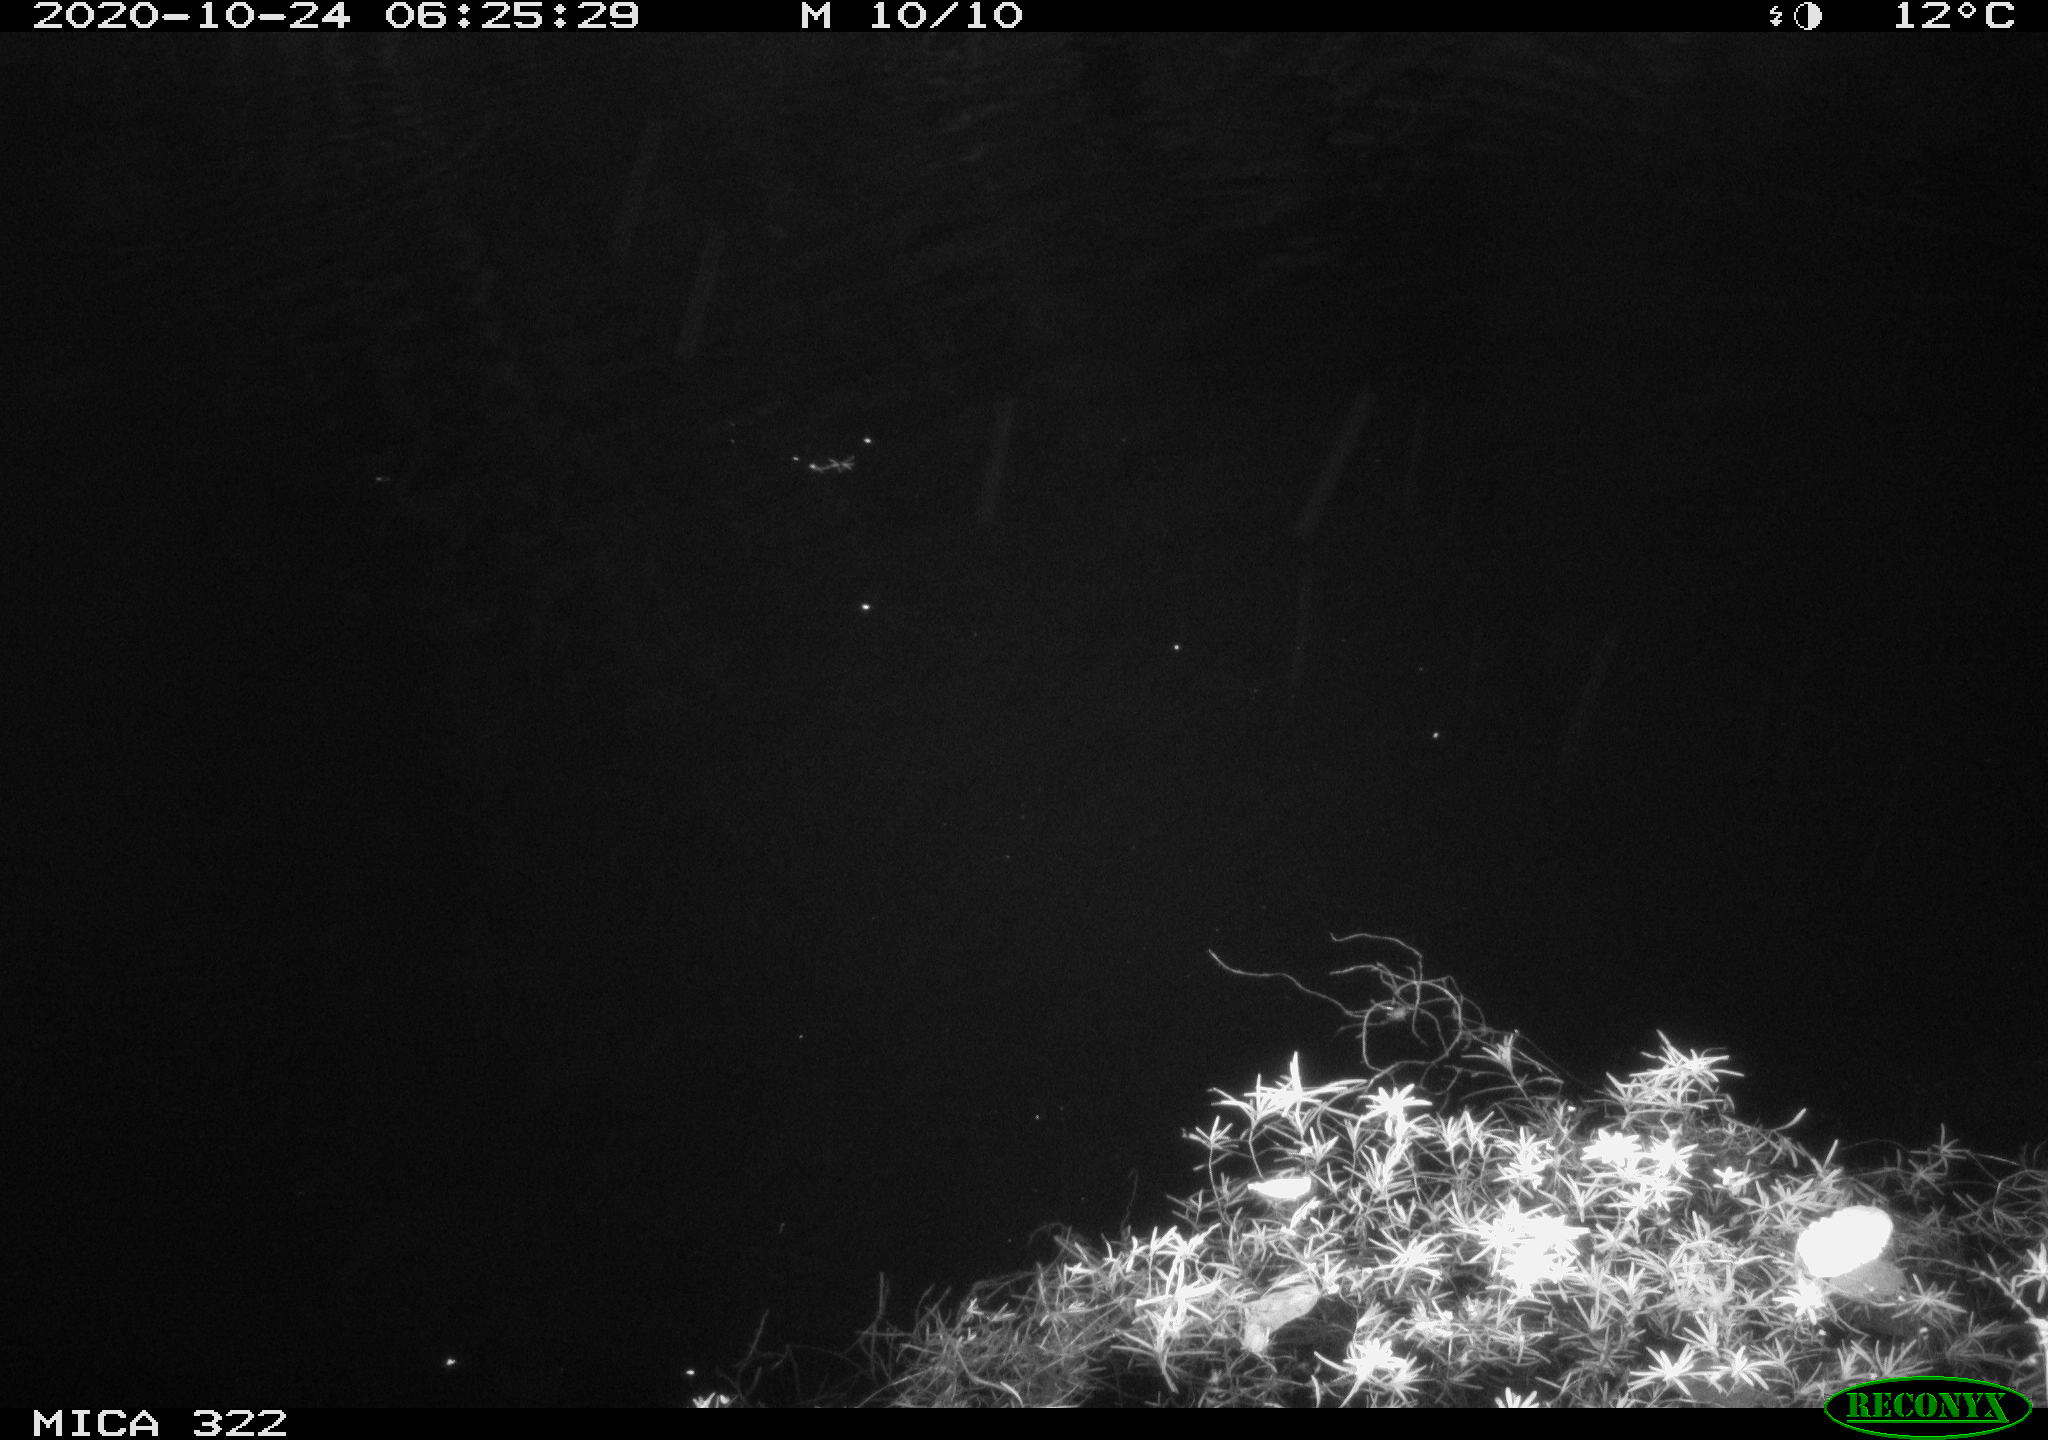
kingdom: Animalia
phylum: Chordata
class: Mammalia
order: Rodentia
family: Muridae
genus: Rattus
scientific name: Rattus norvegicus
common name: Brown rat
